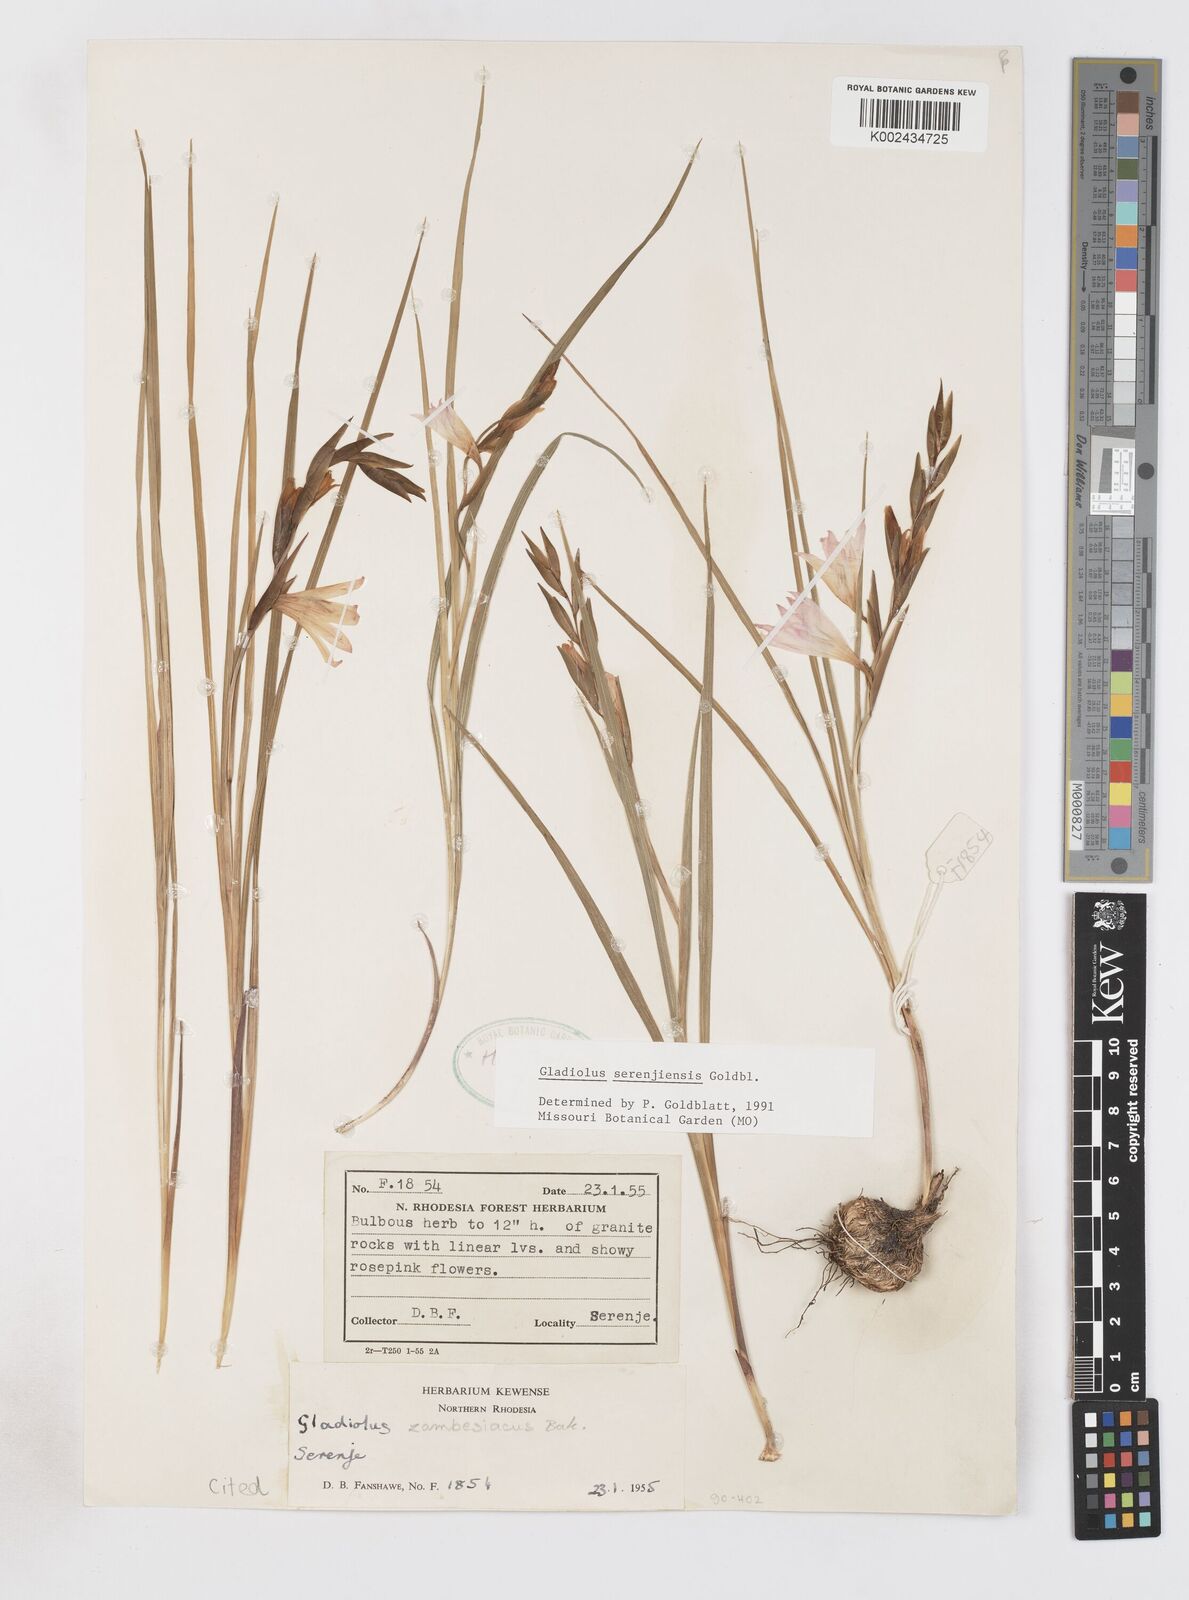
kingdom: Plantae
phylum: Tracheophyta
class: Liliopsida
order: Asparagales
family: Iridaceae
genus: Gladiolus
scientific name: Gladiolus serenjensis
